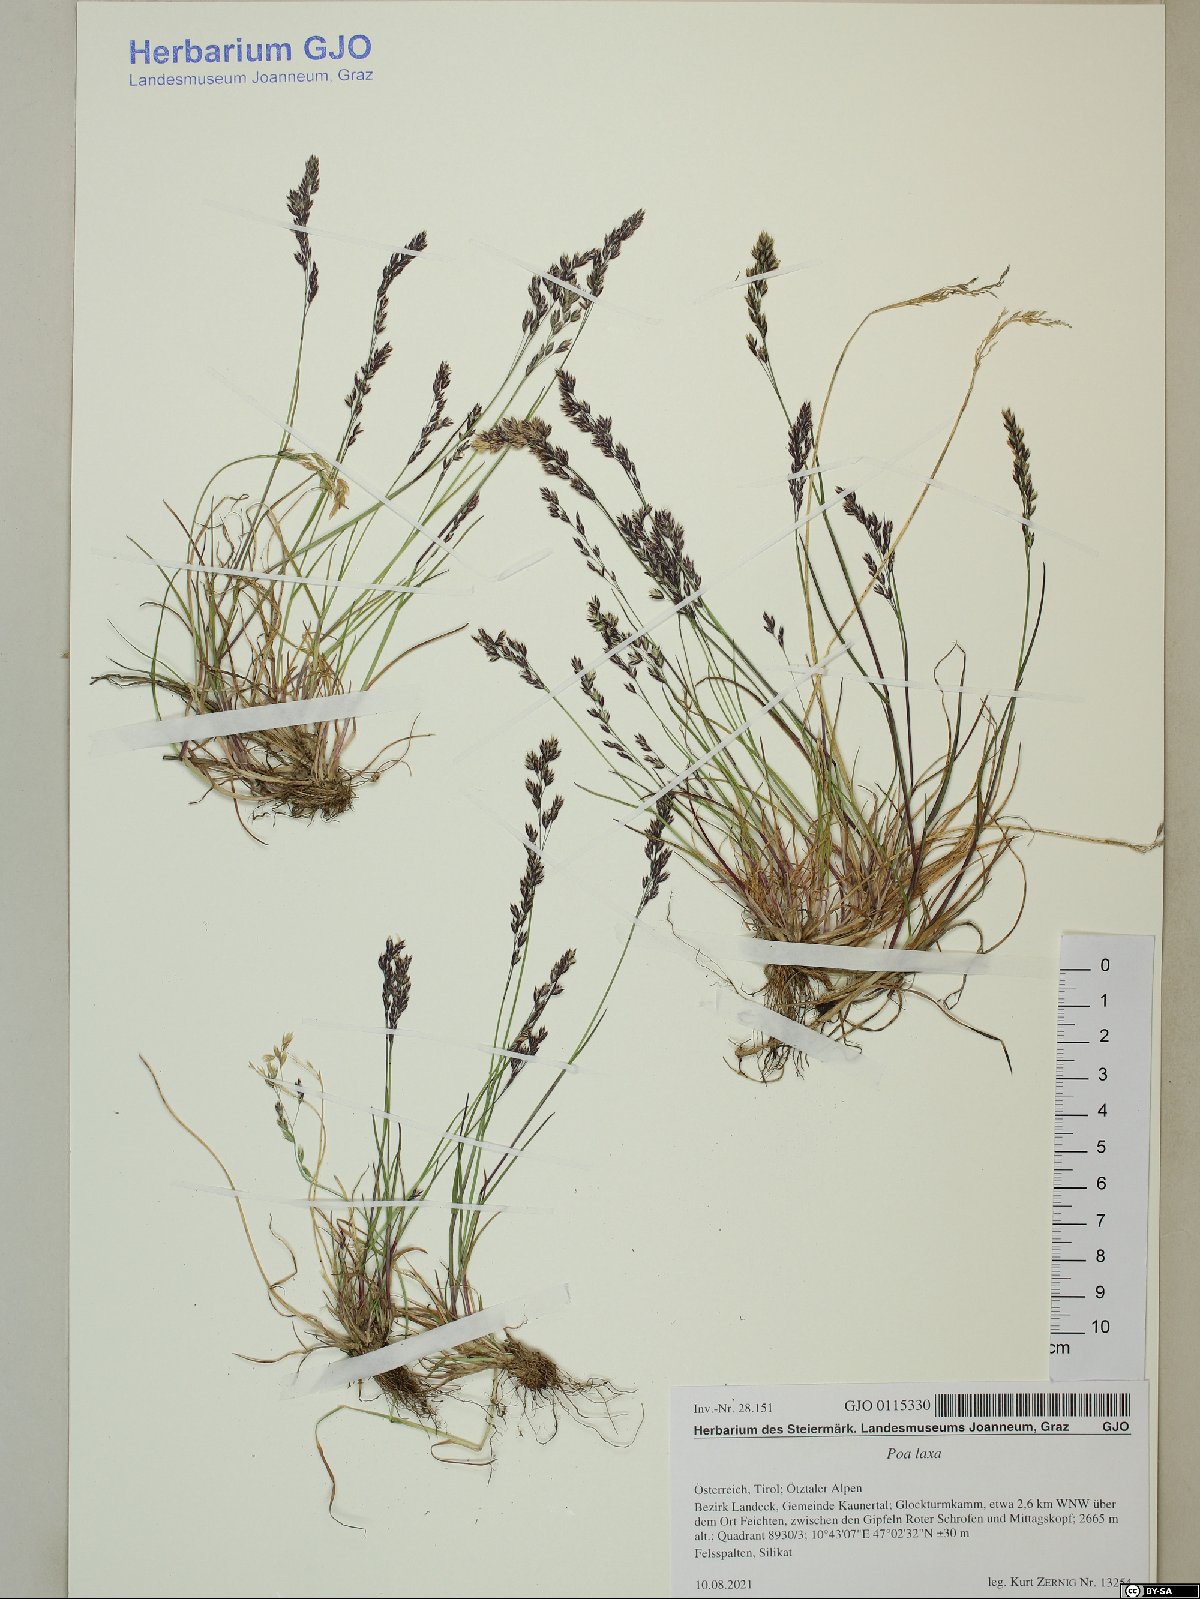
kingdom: Plantae
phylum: Tracheophyta
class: Liliopsida
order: Poales
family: Poaceae
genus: Poa
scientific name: Poa laxa
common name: Lax bluegrass
